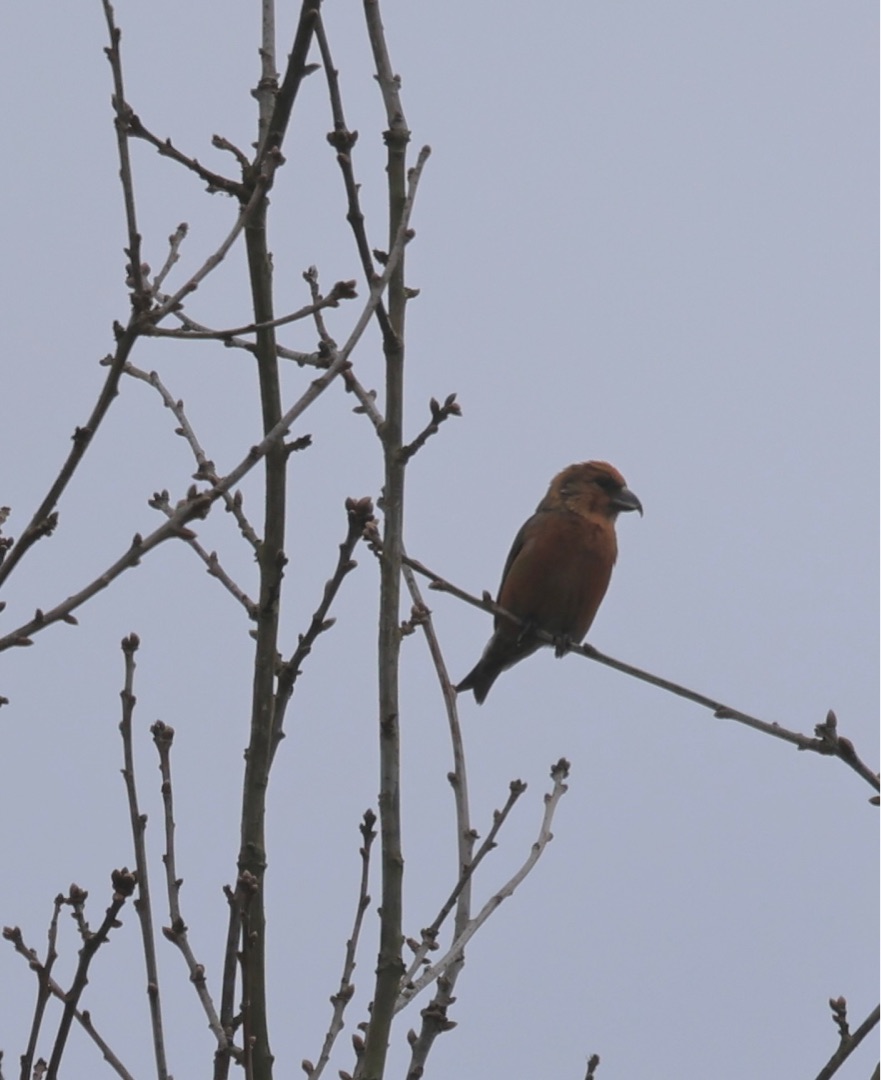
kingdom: Animalia
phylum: Chordata
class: Aves
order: Passeriformes
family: Fringillidae
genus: Loxia
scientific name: Loxia curvirostra
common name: Lille korsnæb
